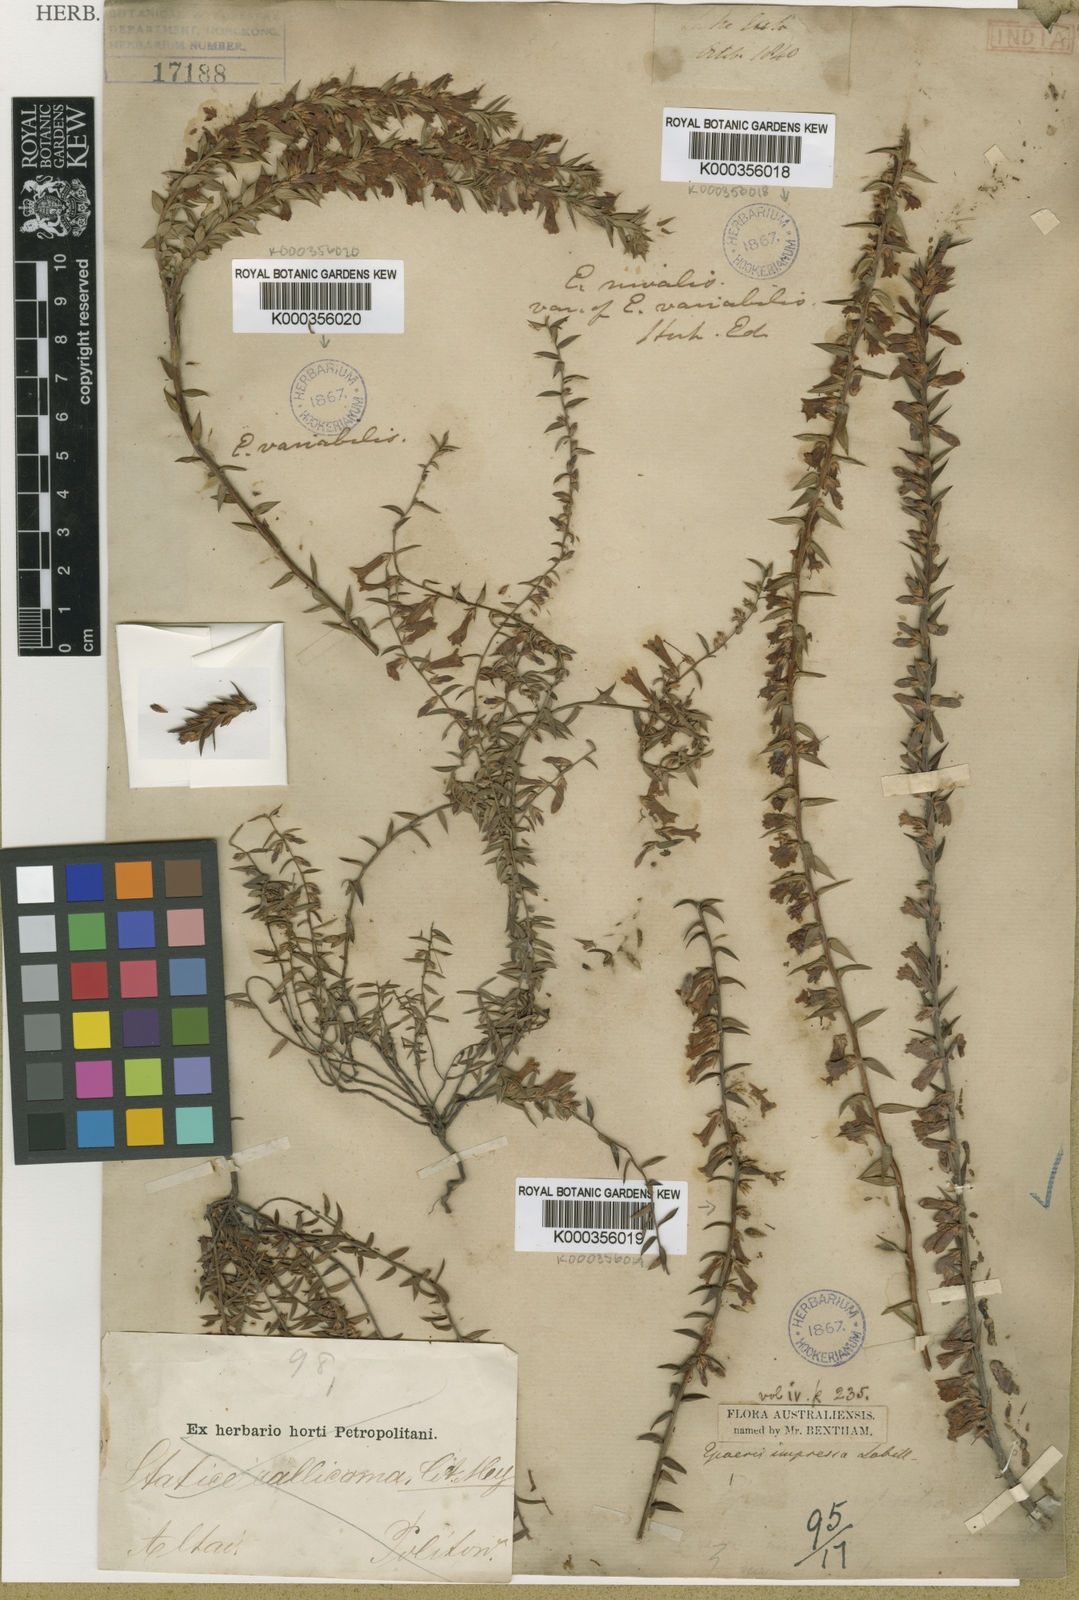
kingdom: Plantae
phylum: Tracheophyta
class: Magnoliopsida
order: Ericales
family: Ericaceae
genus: Epacris
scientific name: Epacris
